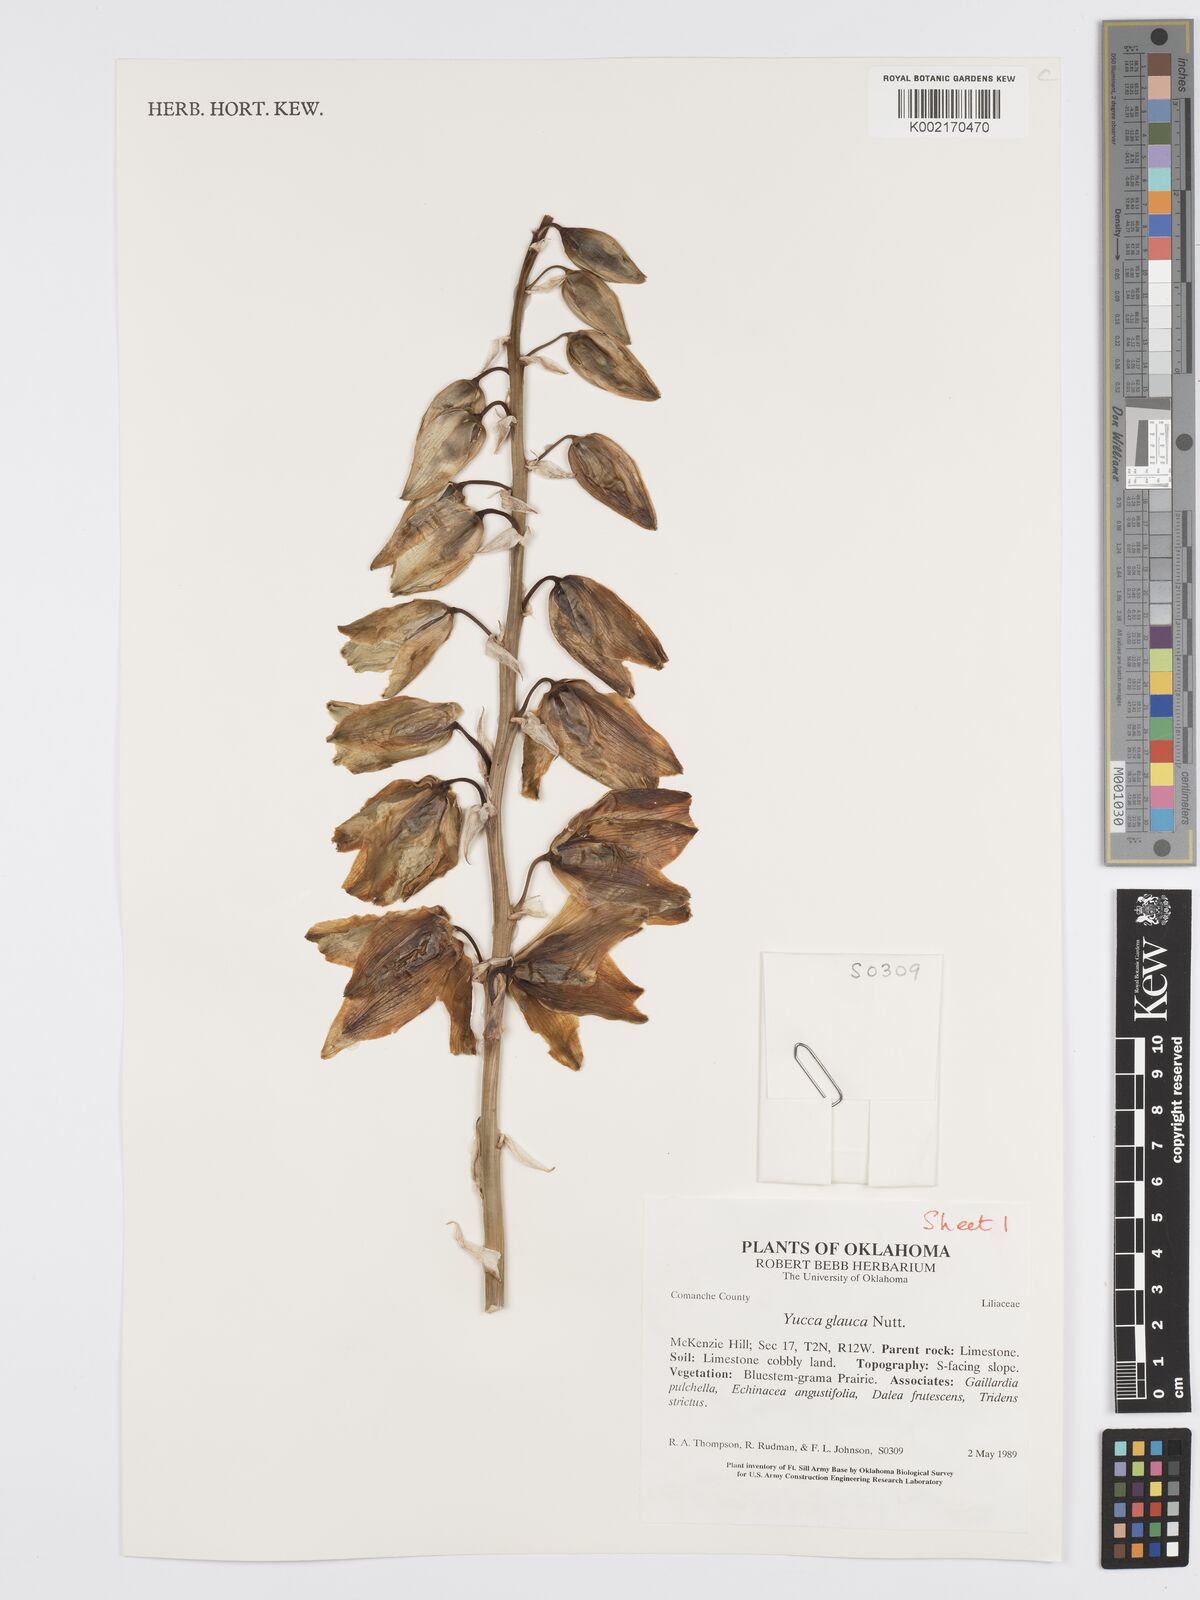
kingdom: Plantae
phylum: Tracheophyta
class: Liliopsida
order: Asparagales
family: Asparagaceae
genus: Yucca
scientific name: Yucca glauca
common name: Great plains yucca
